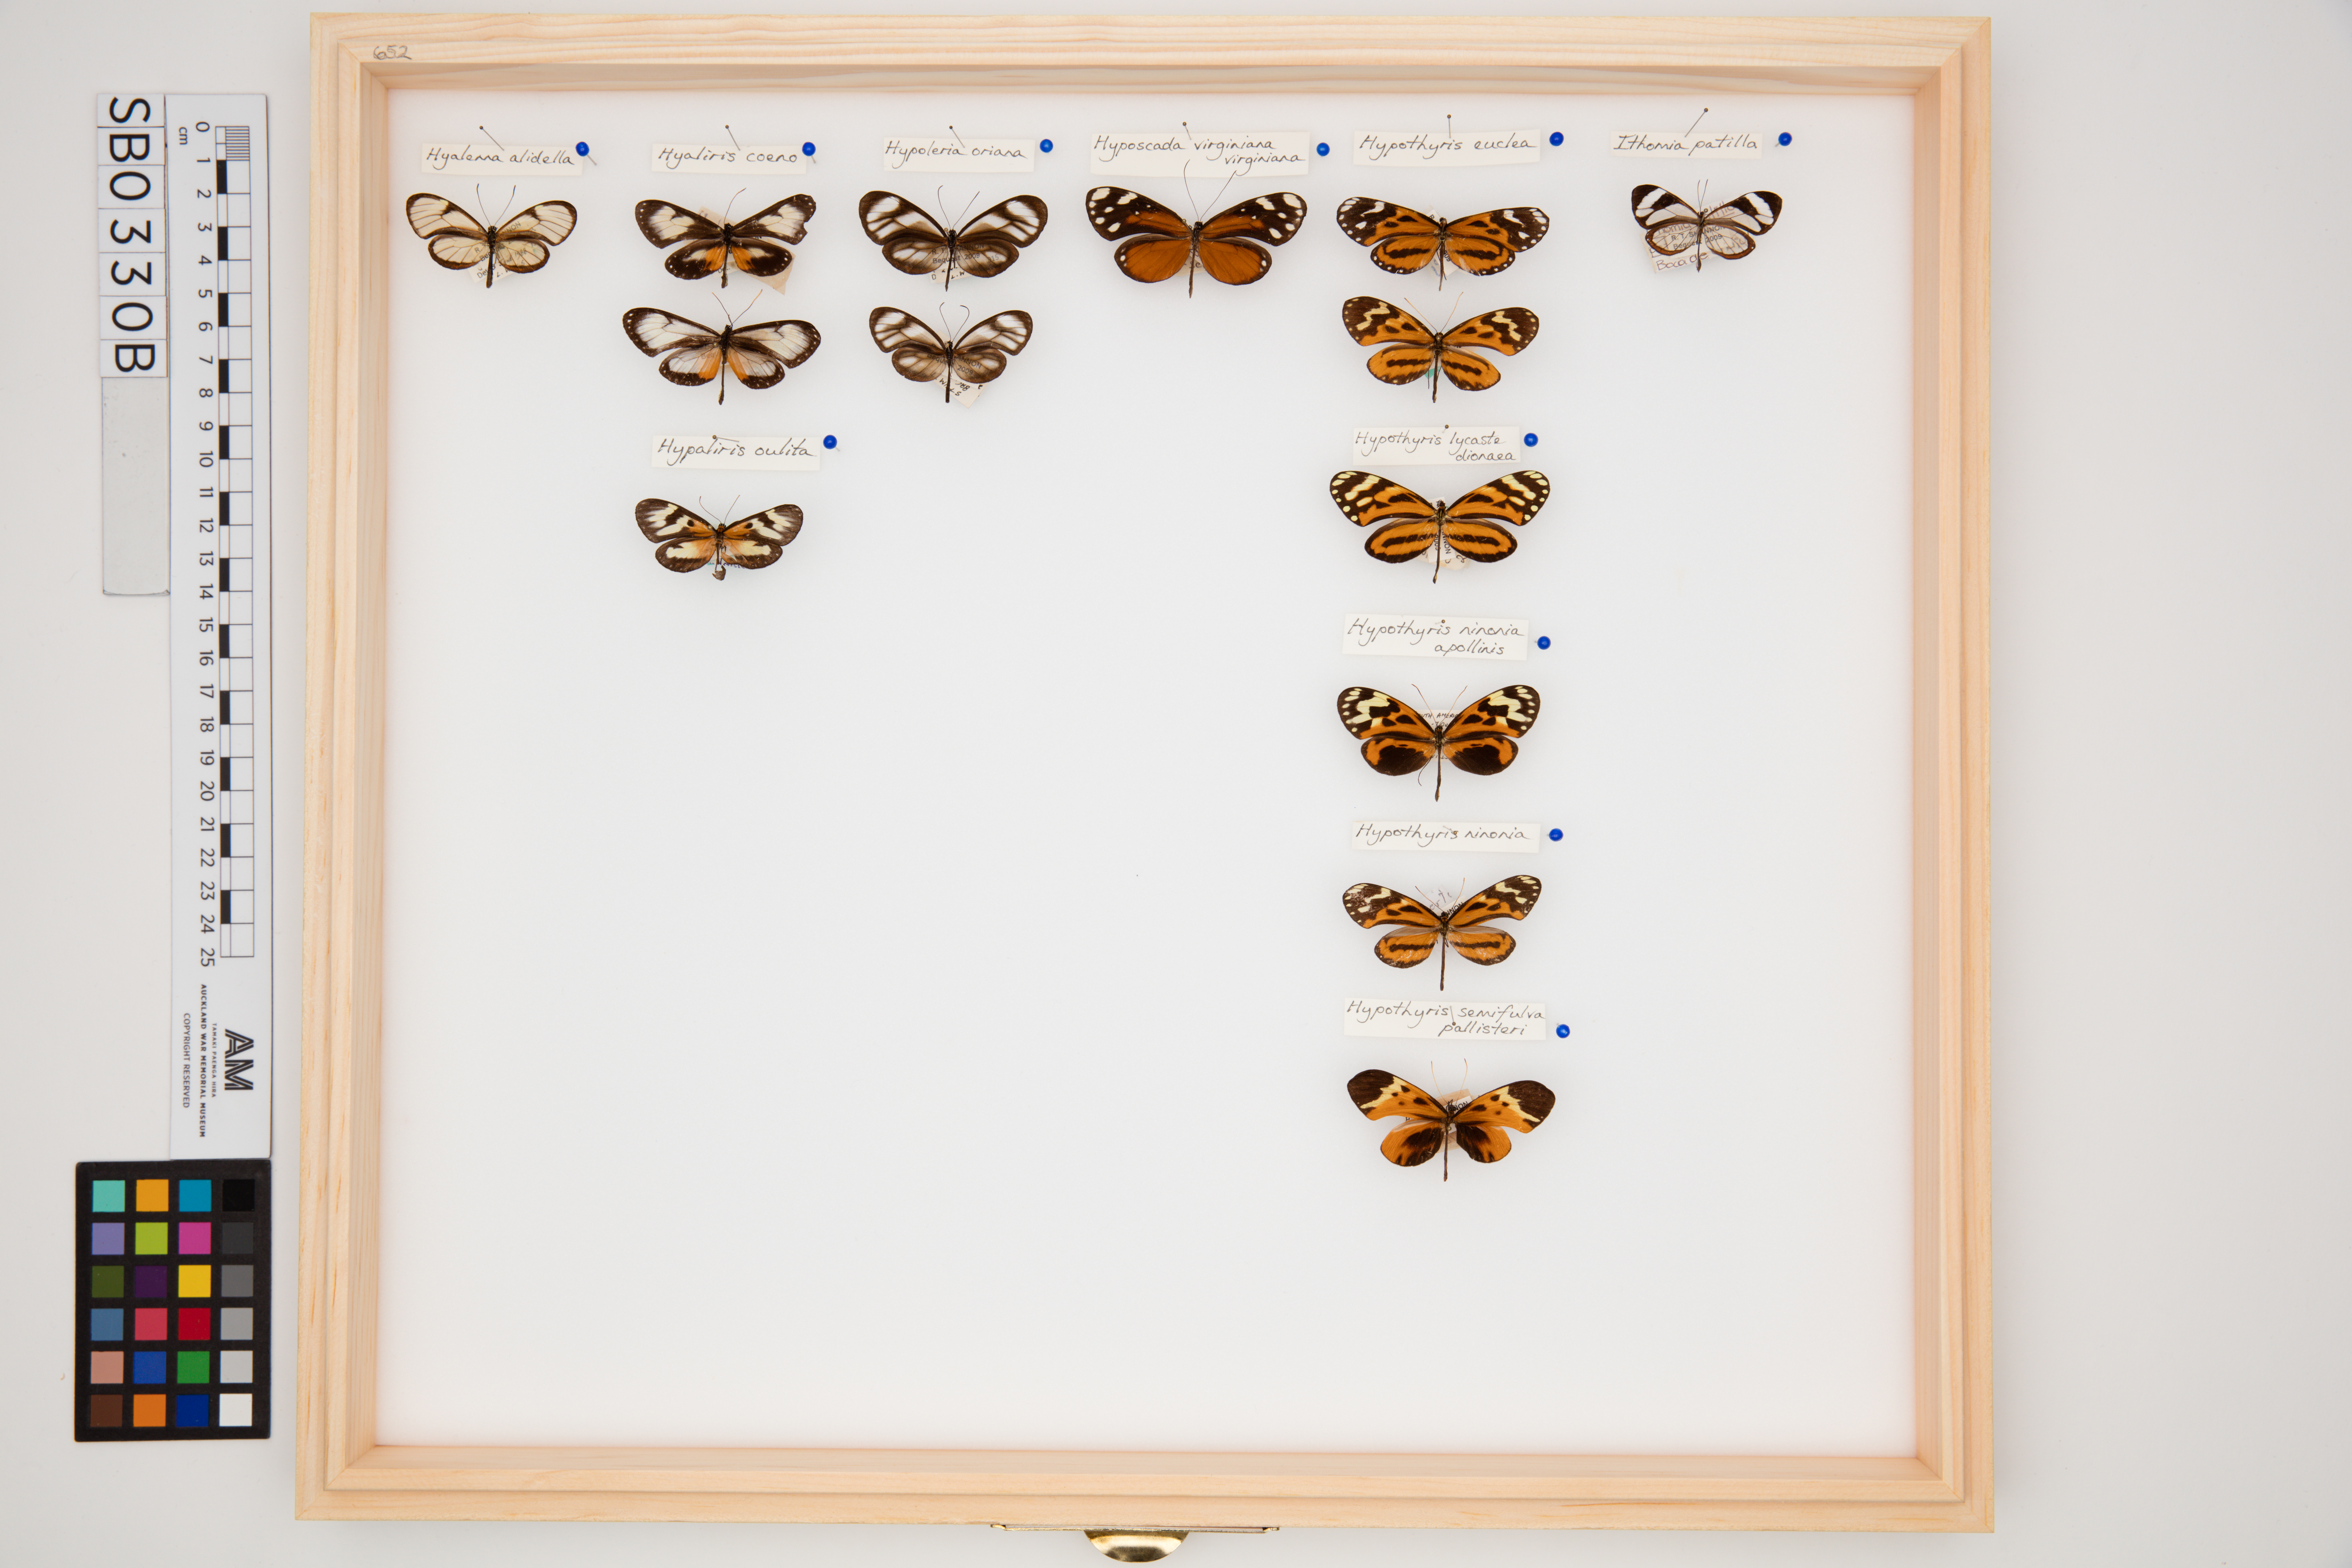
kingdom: Animalia
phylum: Arthropoda
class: Insecta
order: Lepidoptera
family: Nymphalidae
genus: Hypothyris
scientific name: Hypothyris euclea
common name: Euclea tigerwing
